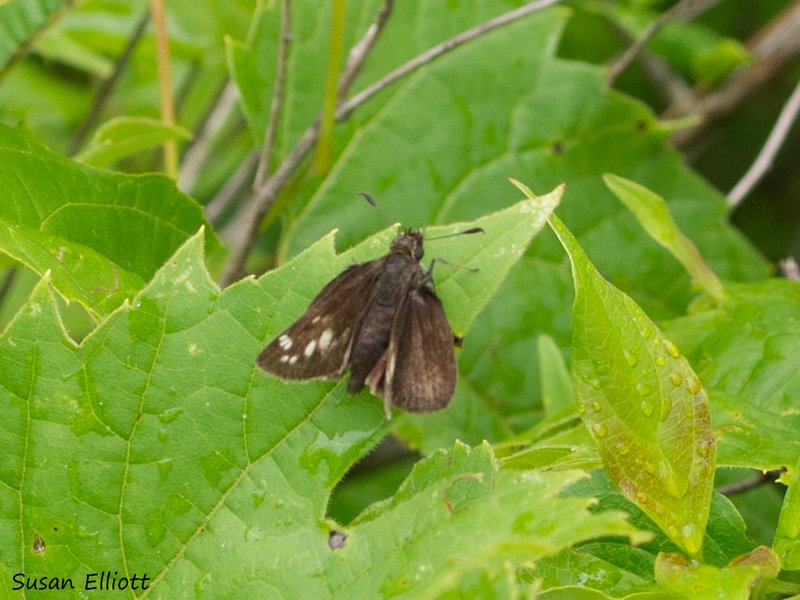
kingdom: Animalia
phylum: Arthropoda
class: Insecta
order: Lepidoptera
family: Hesperiidae
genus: Lon
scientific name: Lon hobomok
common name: Hobomok Skipper
